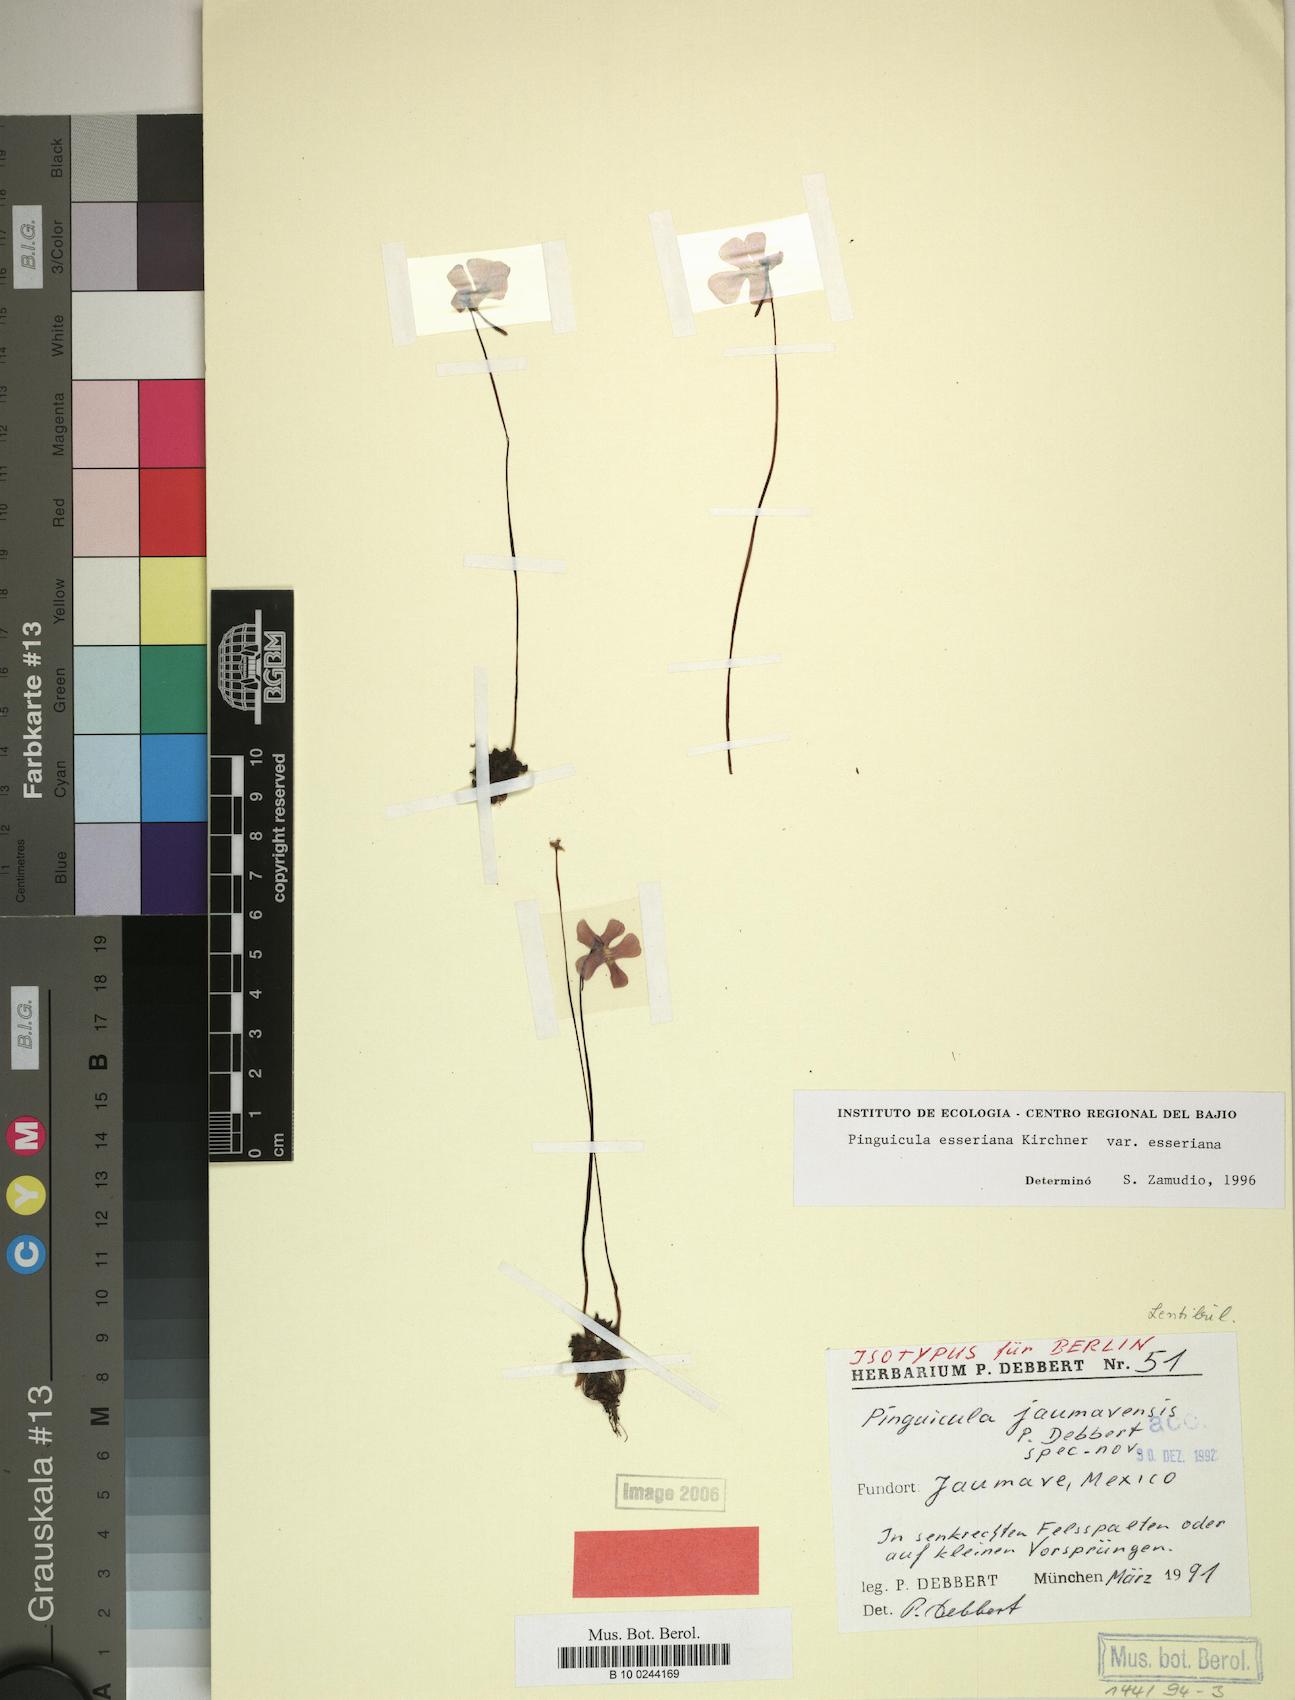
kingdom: Plantae
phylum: Tracheophyta
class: Magnoliopsida
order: Lamiales
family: Lentibulariaceae
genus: Pinguicula
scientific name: Pinguicula esseriana
